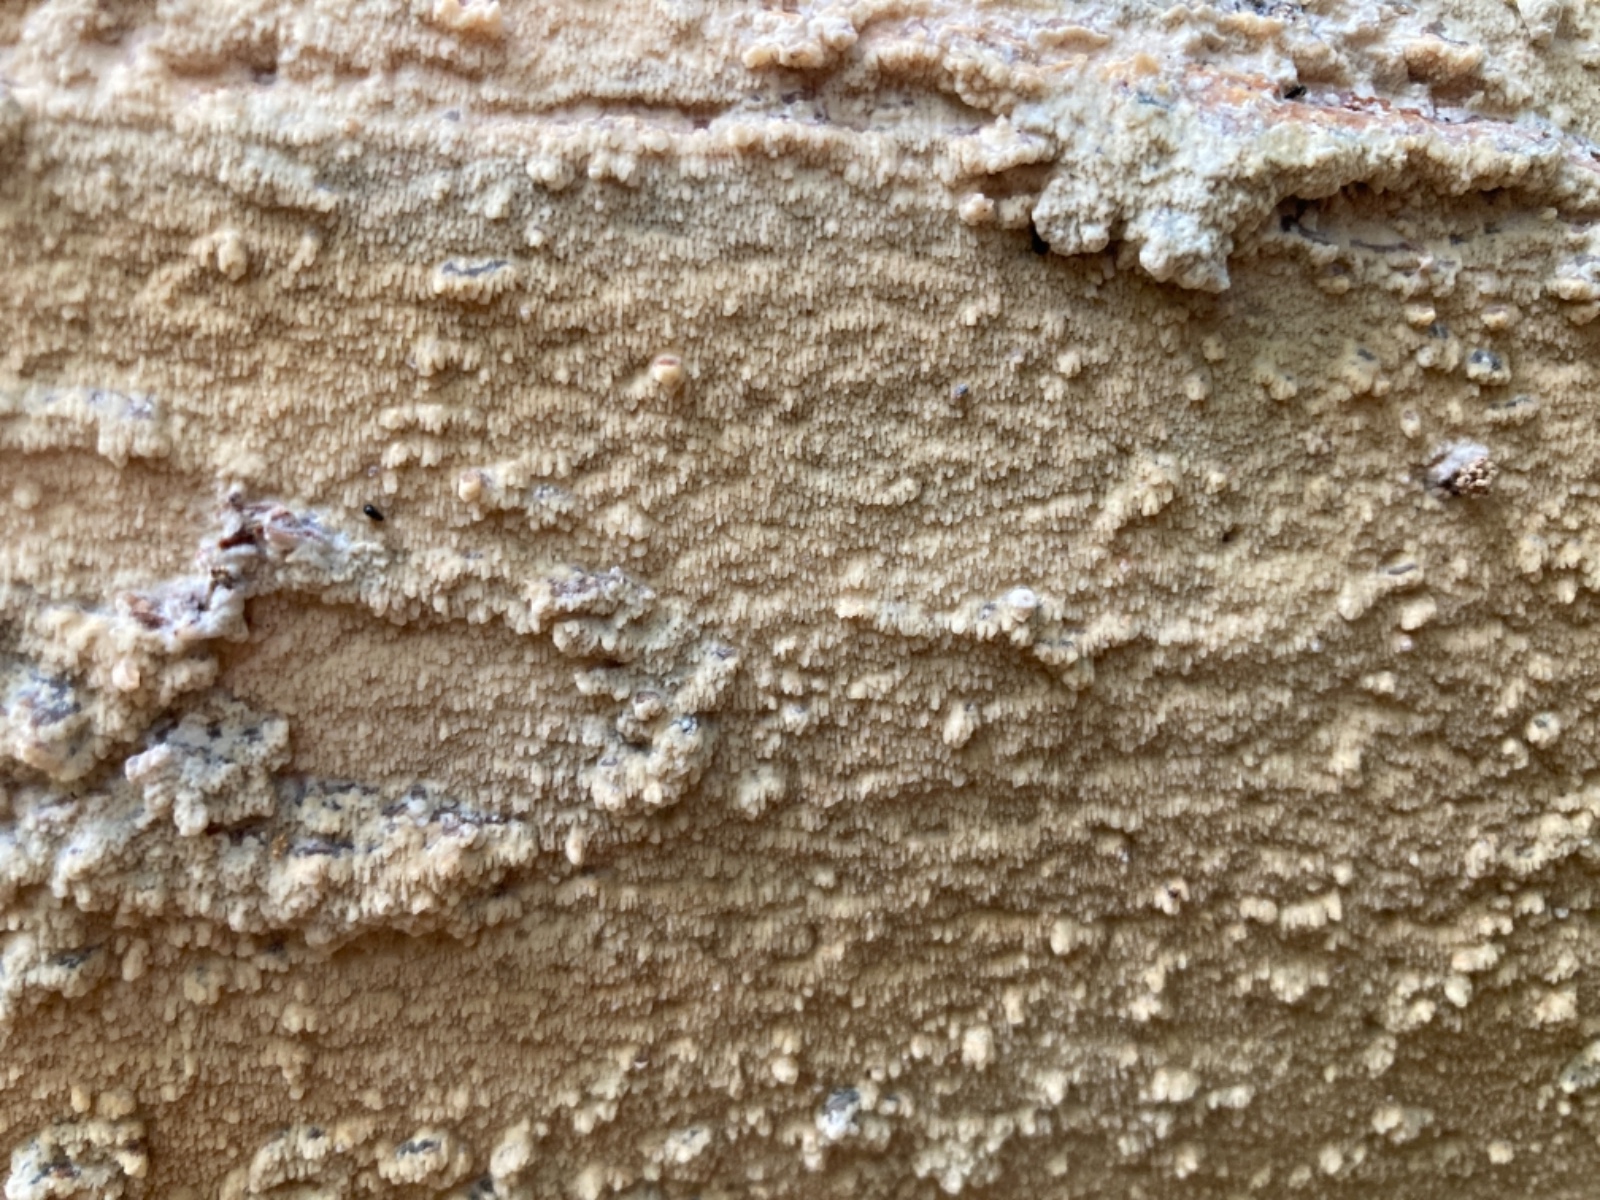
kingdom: Fungi
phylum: Basidiomycota
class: Agaricomycetes
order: Polyporales
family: Meruliaceae
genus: Phlebia
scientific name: Phlebia rufa
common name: ege-åresvamp
